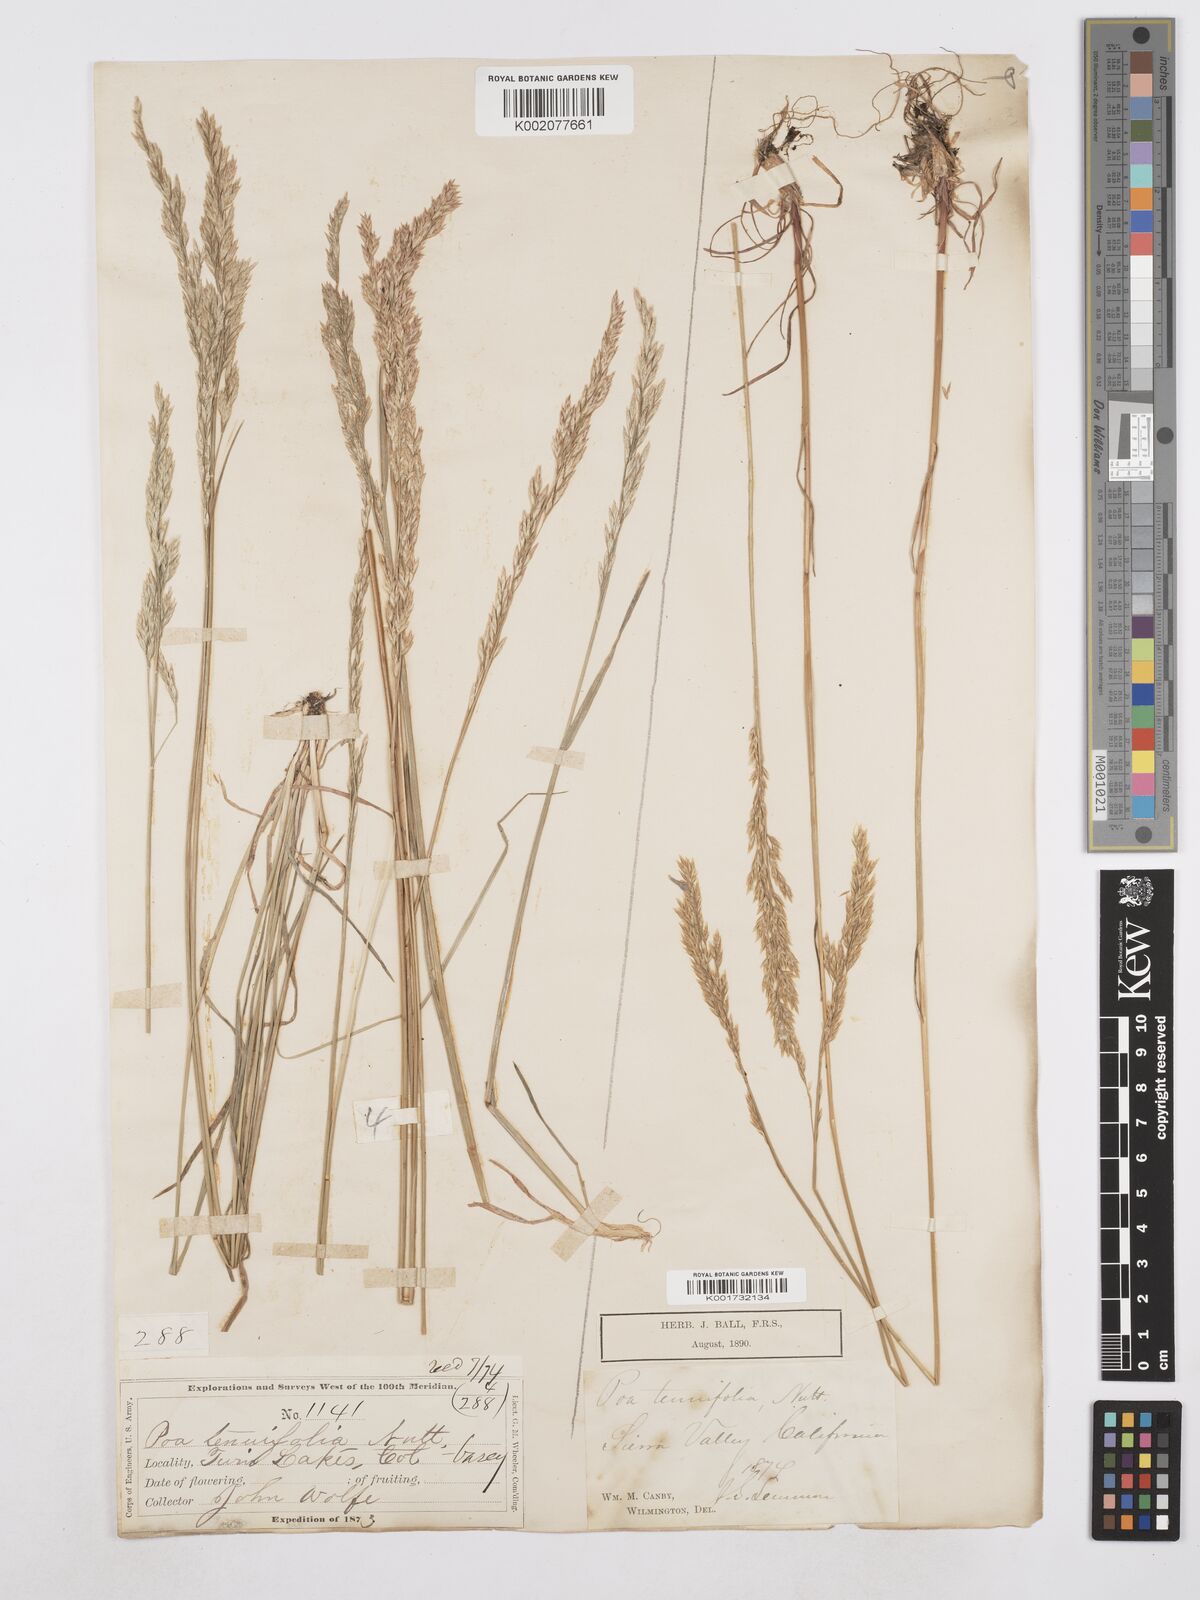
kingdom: Plantae
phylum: Tracheophyta
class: Liliopsida
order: Poales
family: Poaceae
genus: Poa
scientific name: Poa secunda
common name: Sandberg bluegrass
